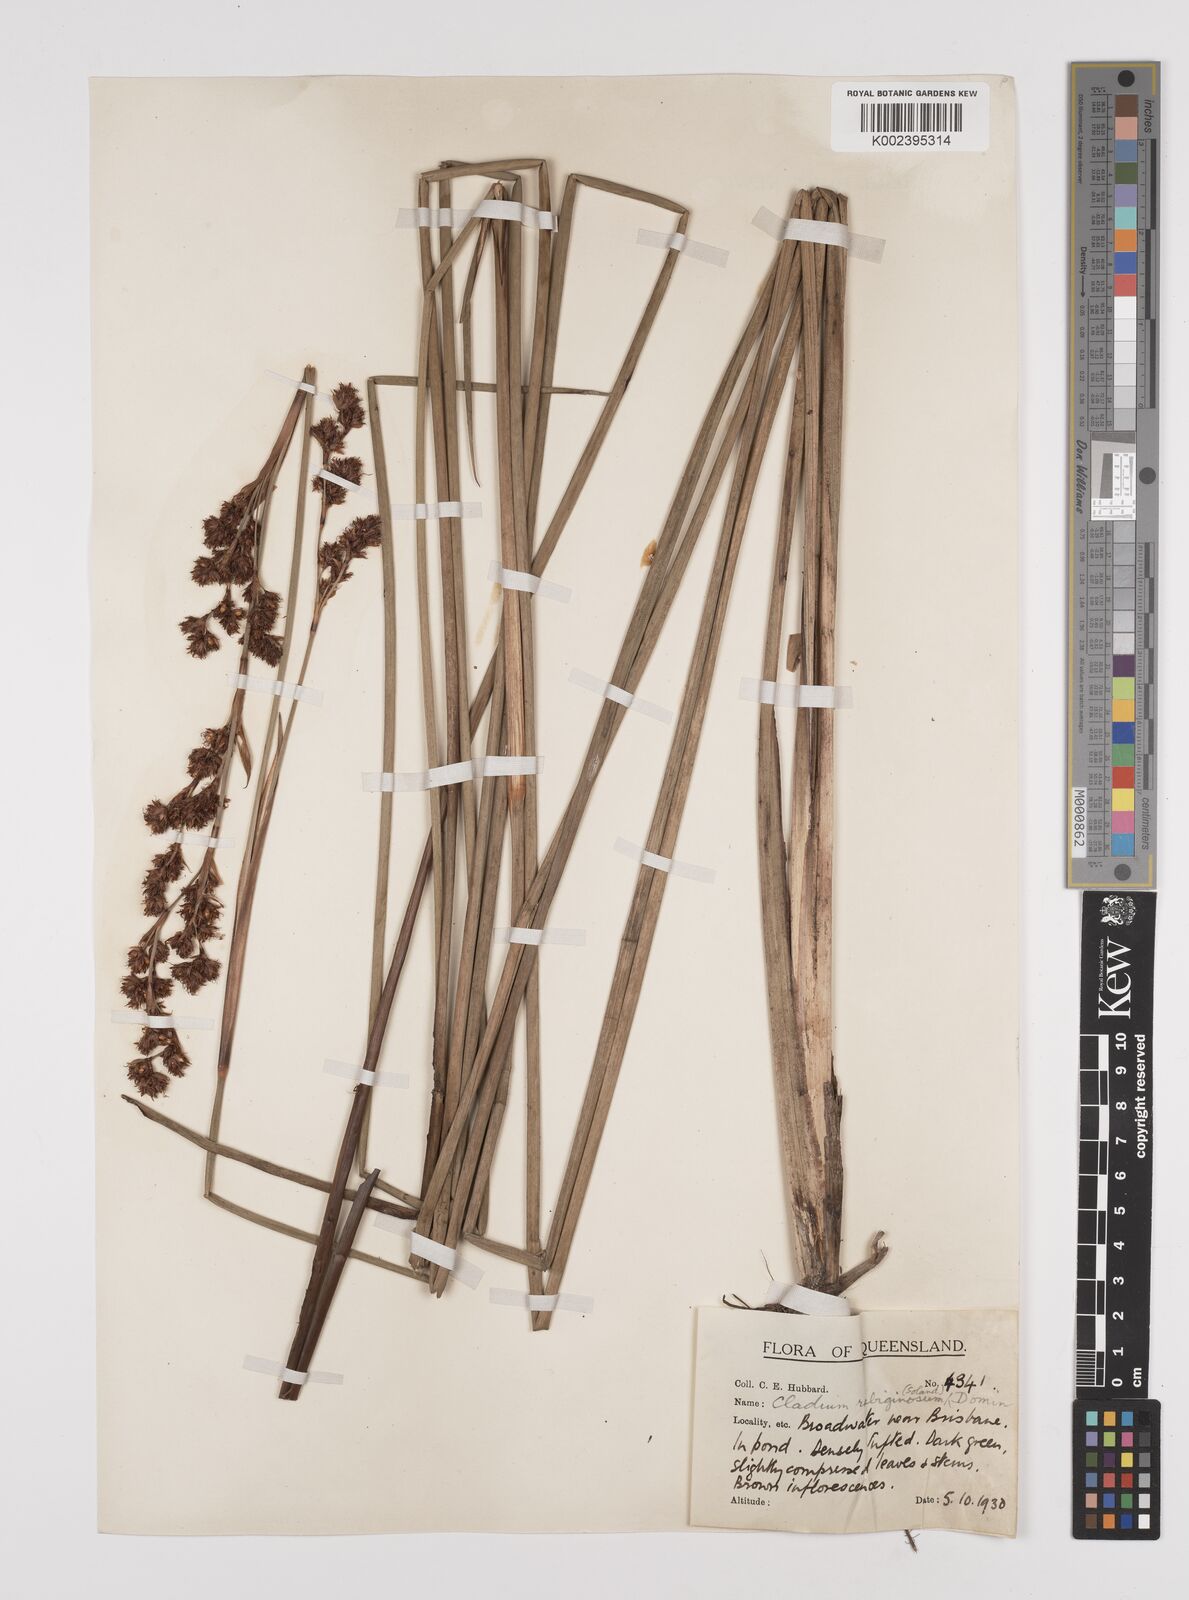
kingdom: Plantae
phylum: Tracheophyta
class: Liliopsida
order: Poales
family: Cyperaceae
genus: Machaerina
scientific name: Machaerina rubiginosa
